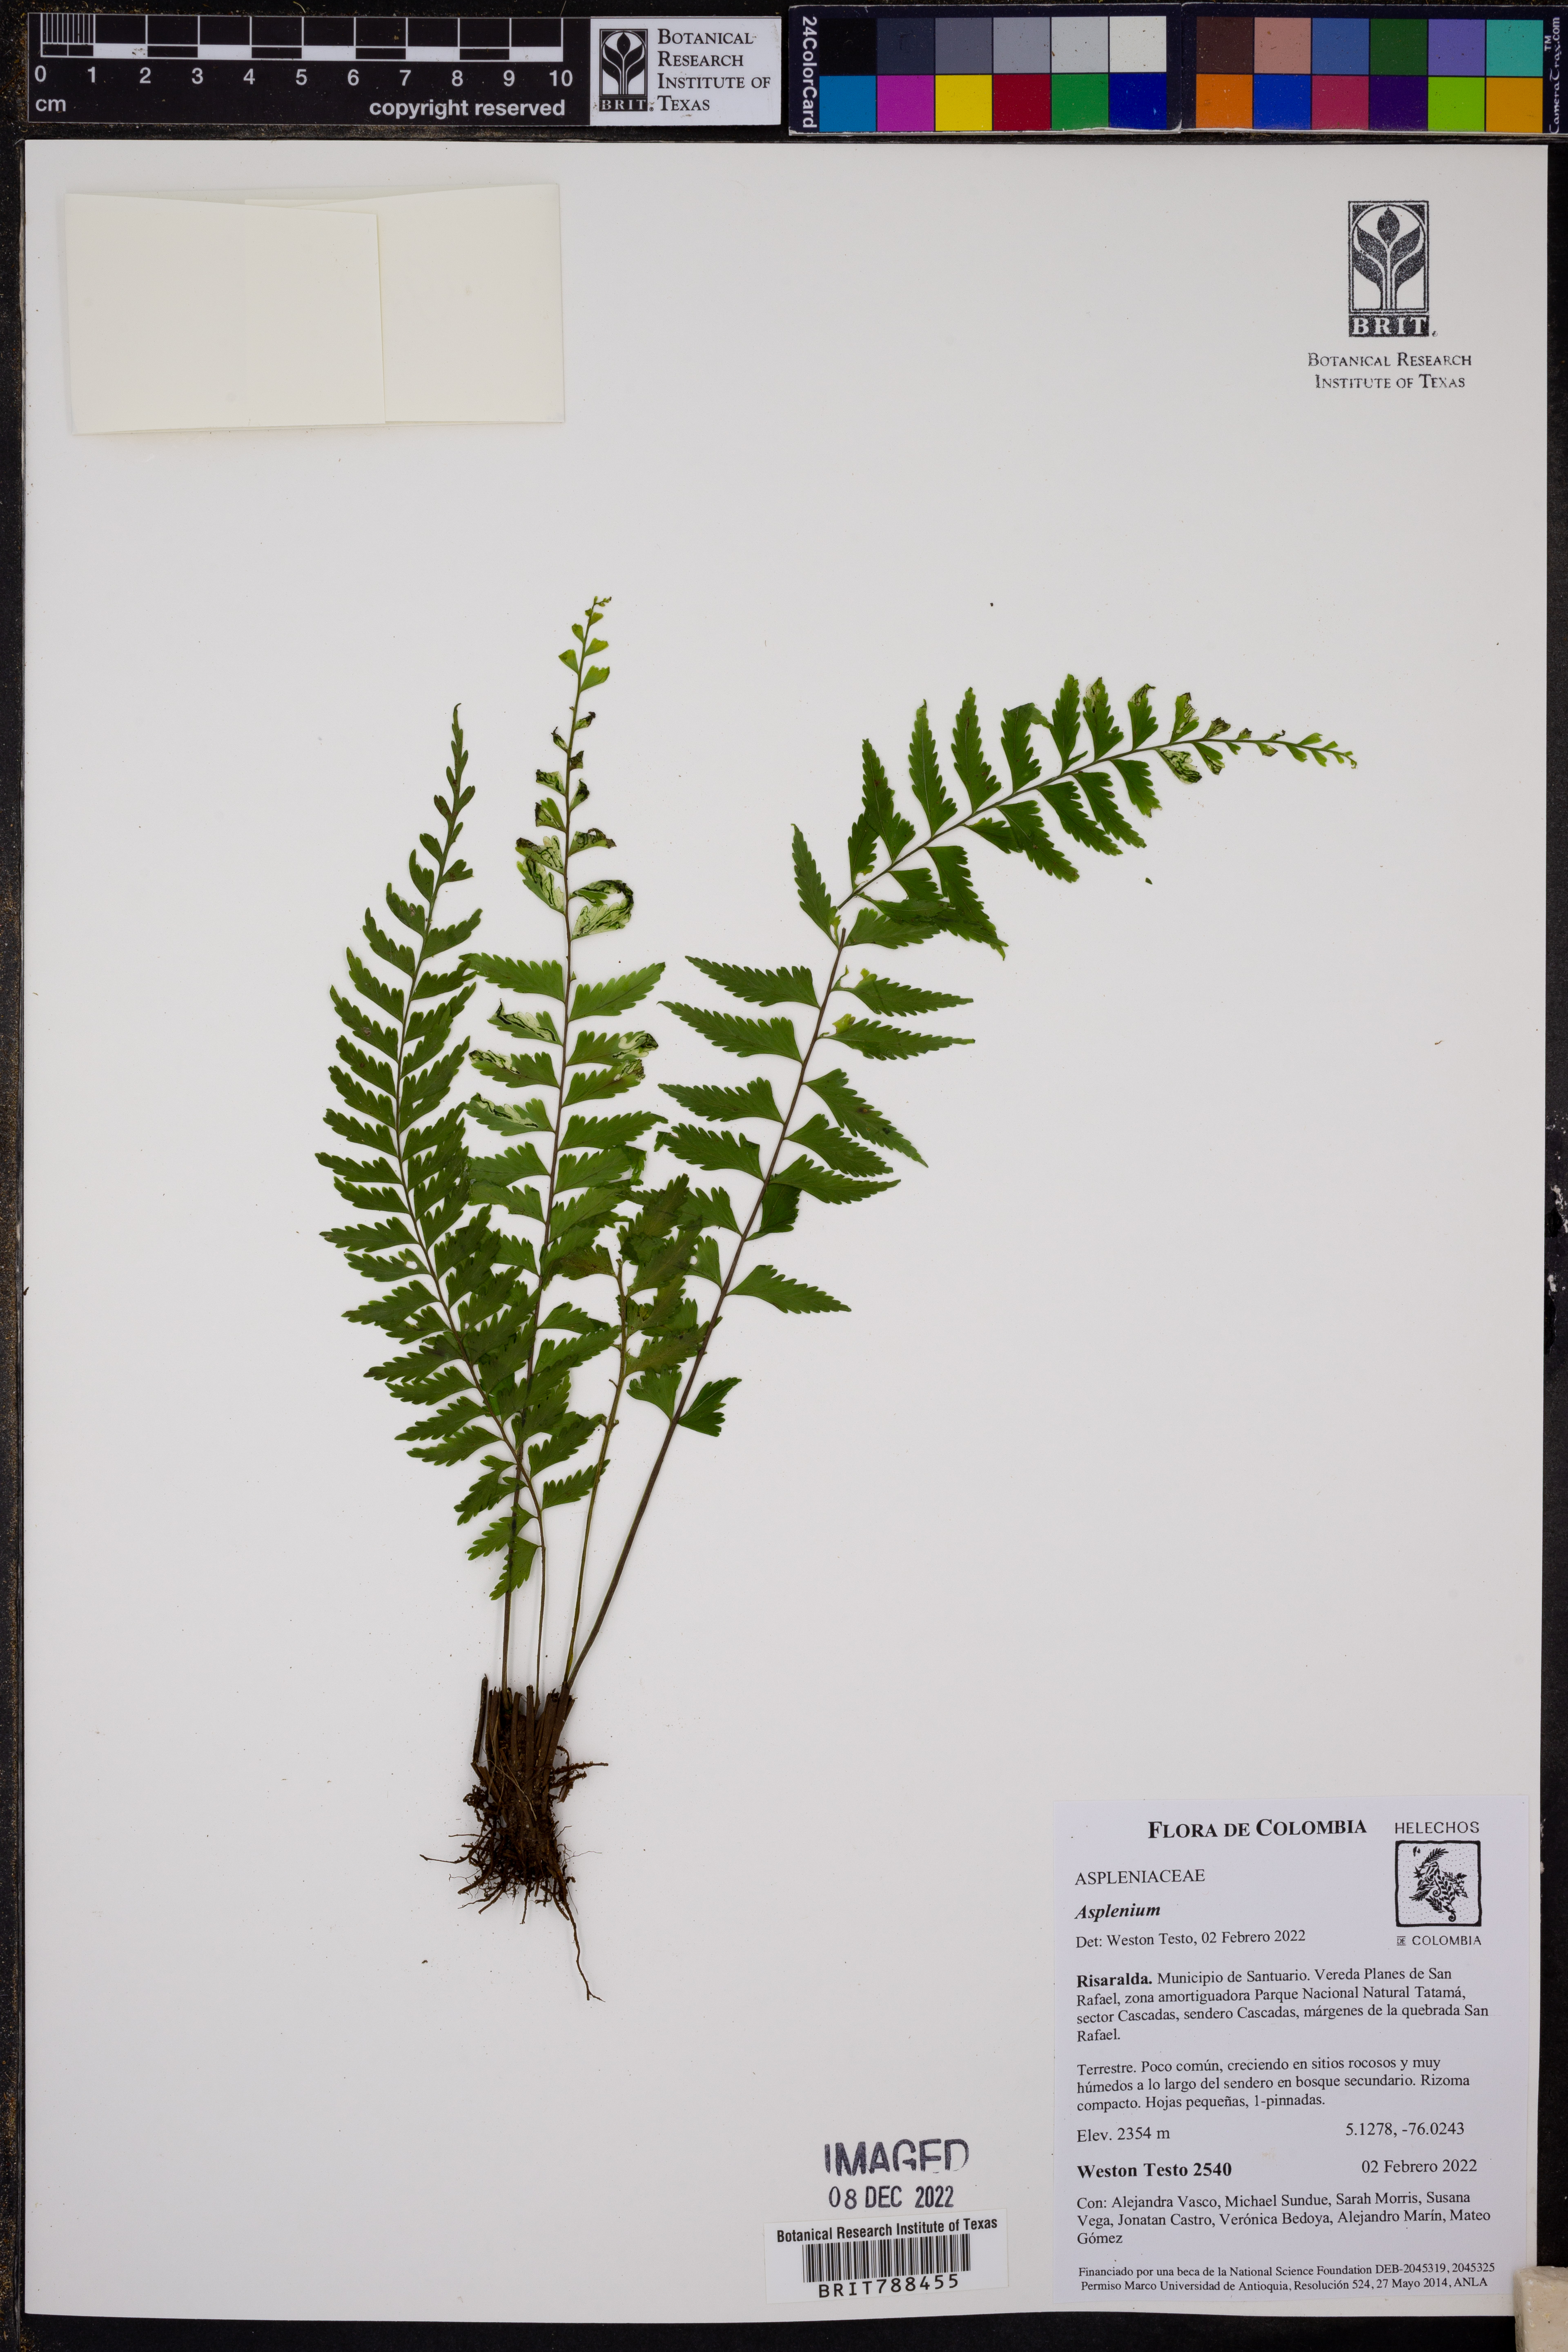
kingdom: Plantae
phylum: Tracheophyta
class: Polypodiopsida
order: Polypodiales
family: Aspleniaceae
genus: Asplenium
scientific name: Asplenium
